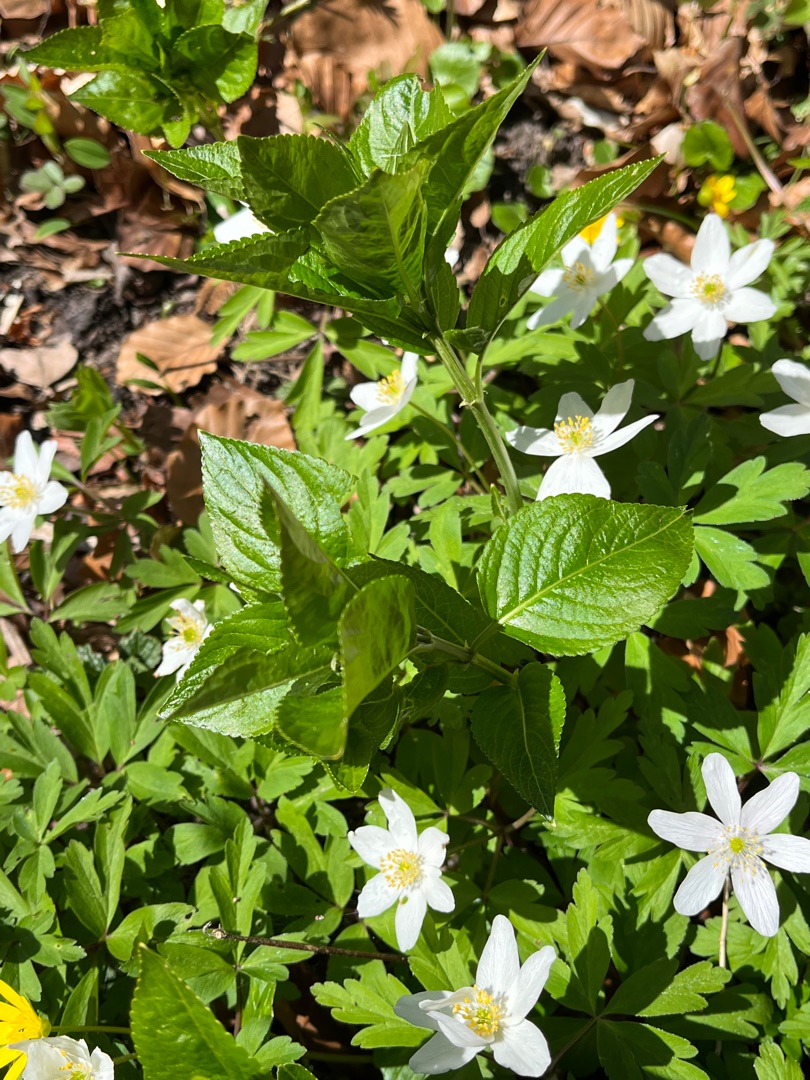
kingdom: Plantae
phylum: Tracheophyta
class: Magnoliopsida
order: Malpighiales
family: Euphorbiaceae
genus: Mercurialis
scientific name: Mercurialis perennis
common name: Almindelig bingelurt
